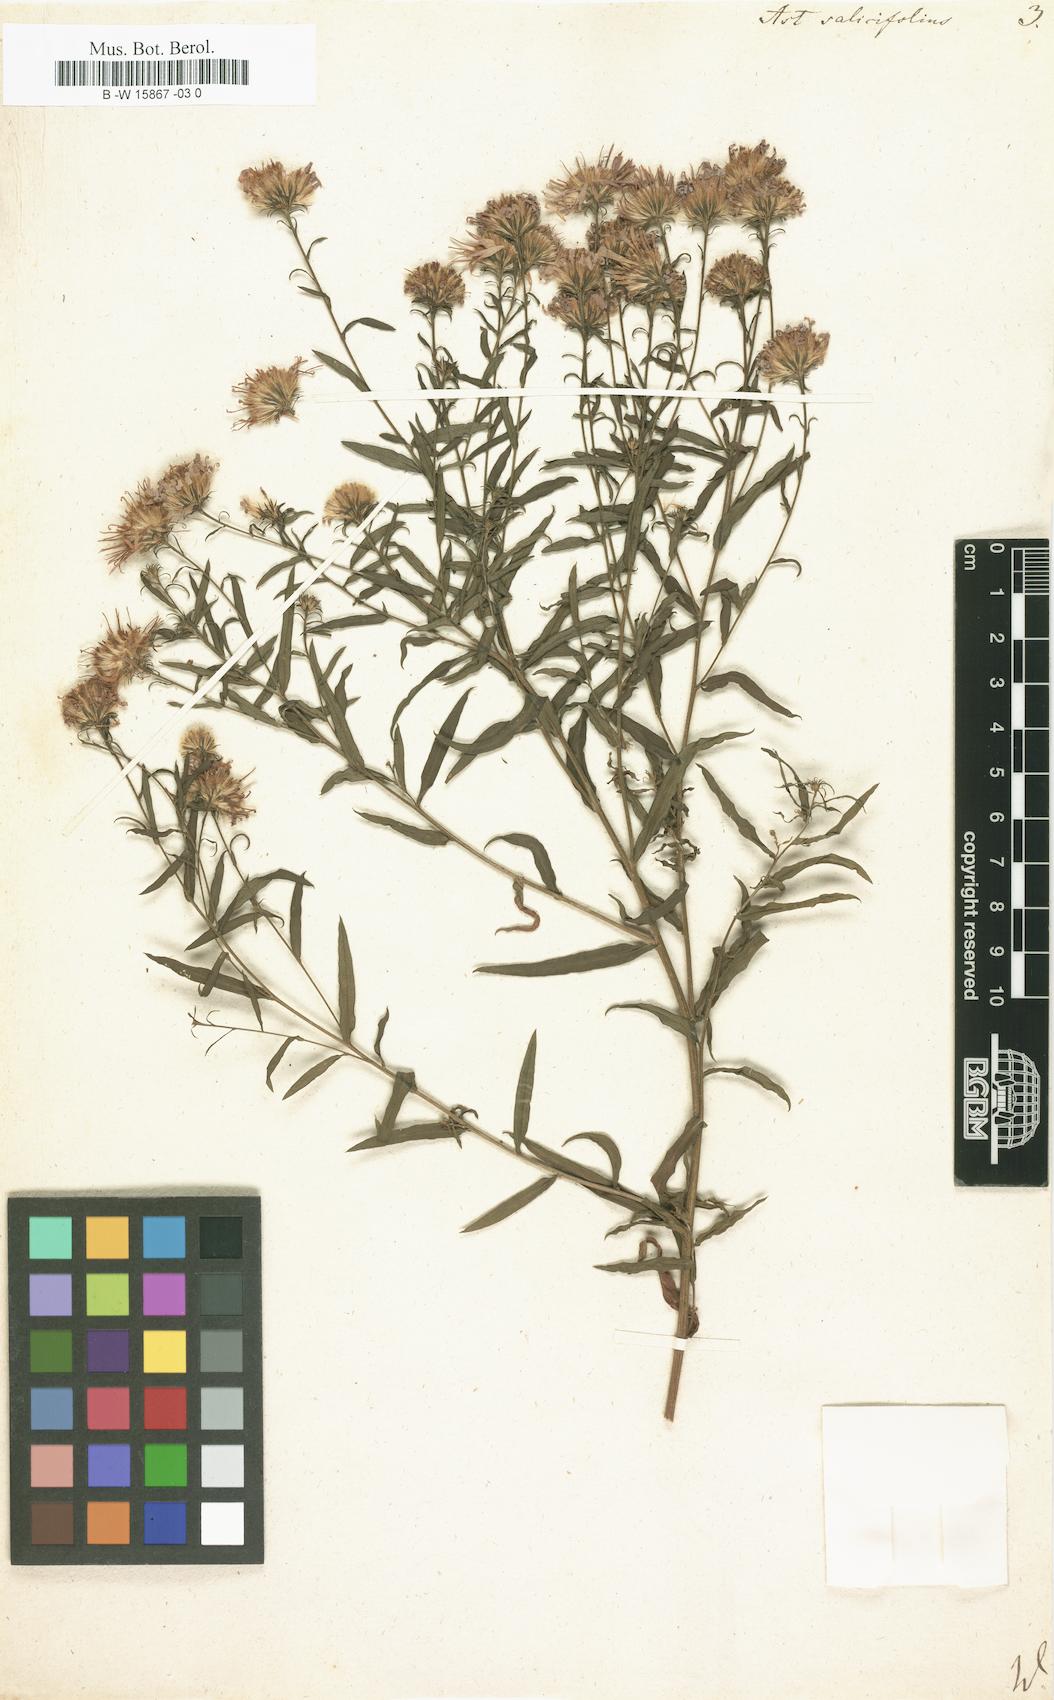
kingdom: Plantae
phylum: Tracheophyta
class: Magnoliopsida
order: Asterales
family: Asteraceae
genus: Aster
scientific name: Aster salicifolius
